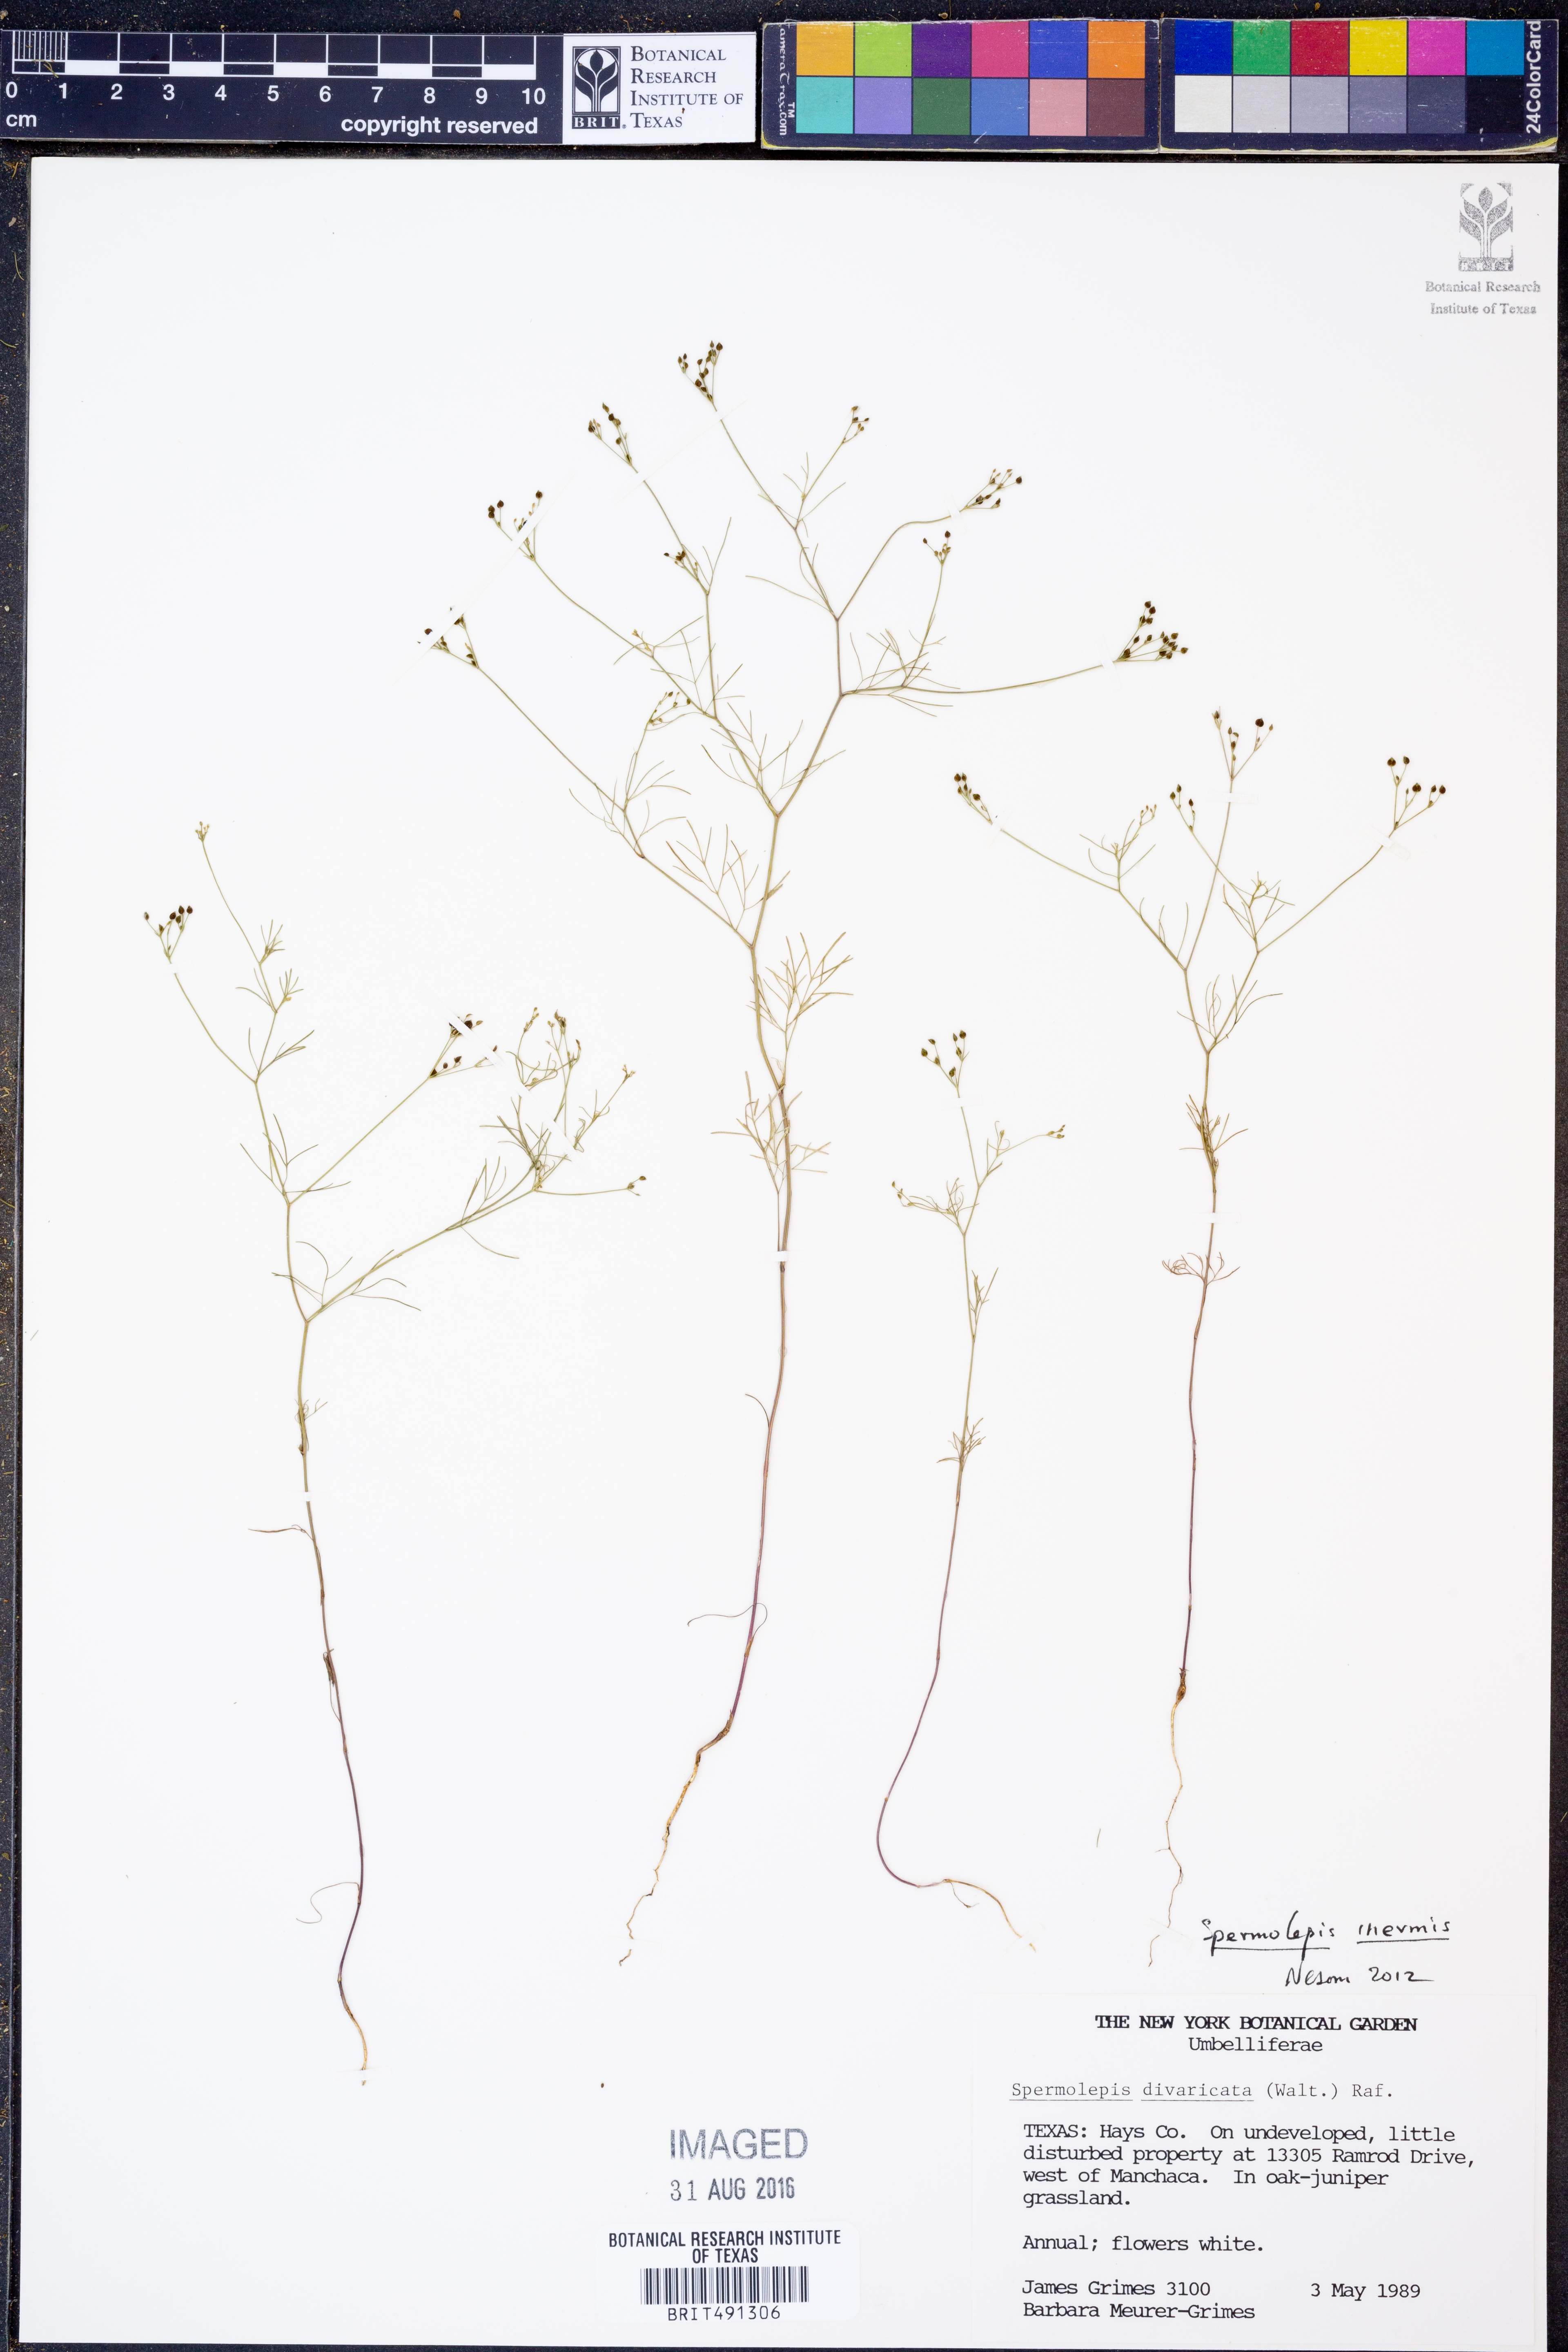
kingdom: Plantae
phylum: Tracheophyta
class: Magnoliopsida
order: Apiales
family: Apiaceae
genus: Spermolepis
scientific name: Spermolepis inermis
